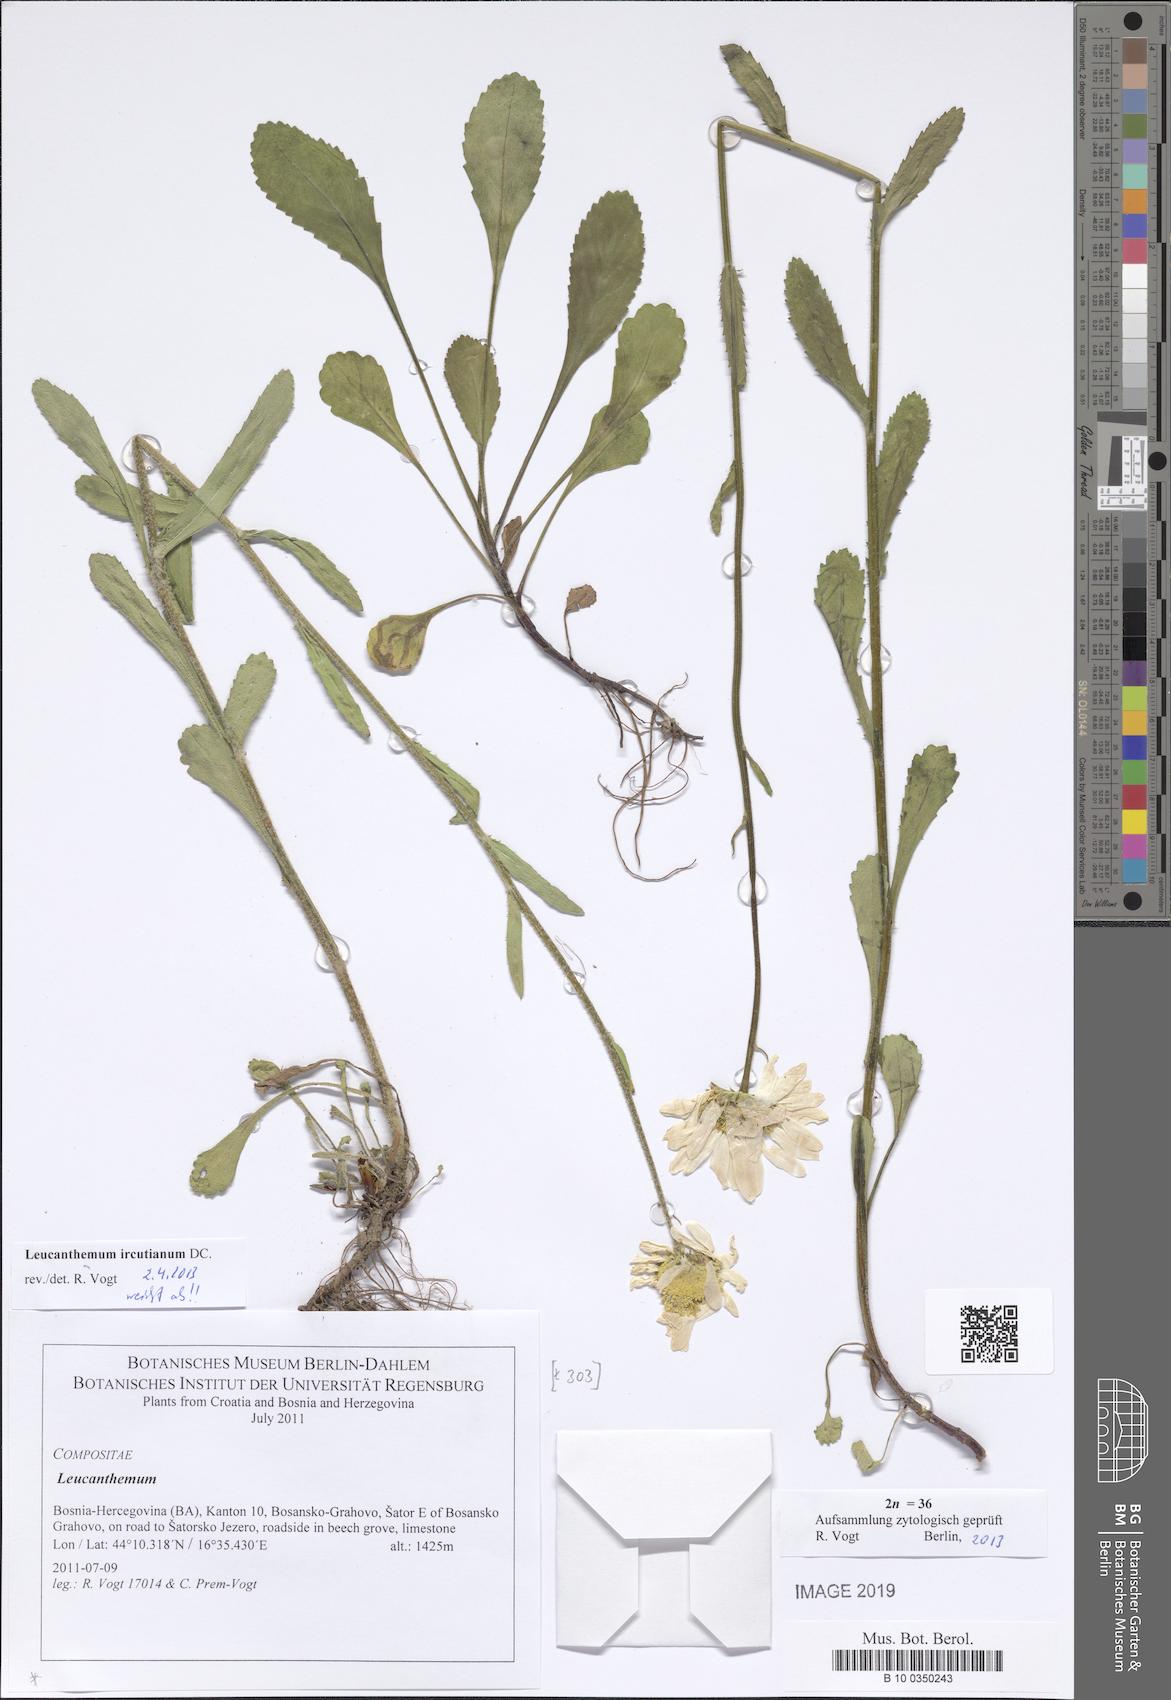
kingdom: Plantae
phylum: Tracheophyta
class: Magnoliopsida
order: Asterales
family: Asteraceae
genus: Leucanthemum
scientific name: Leucanthemum ircutianum
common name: Daisy
